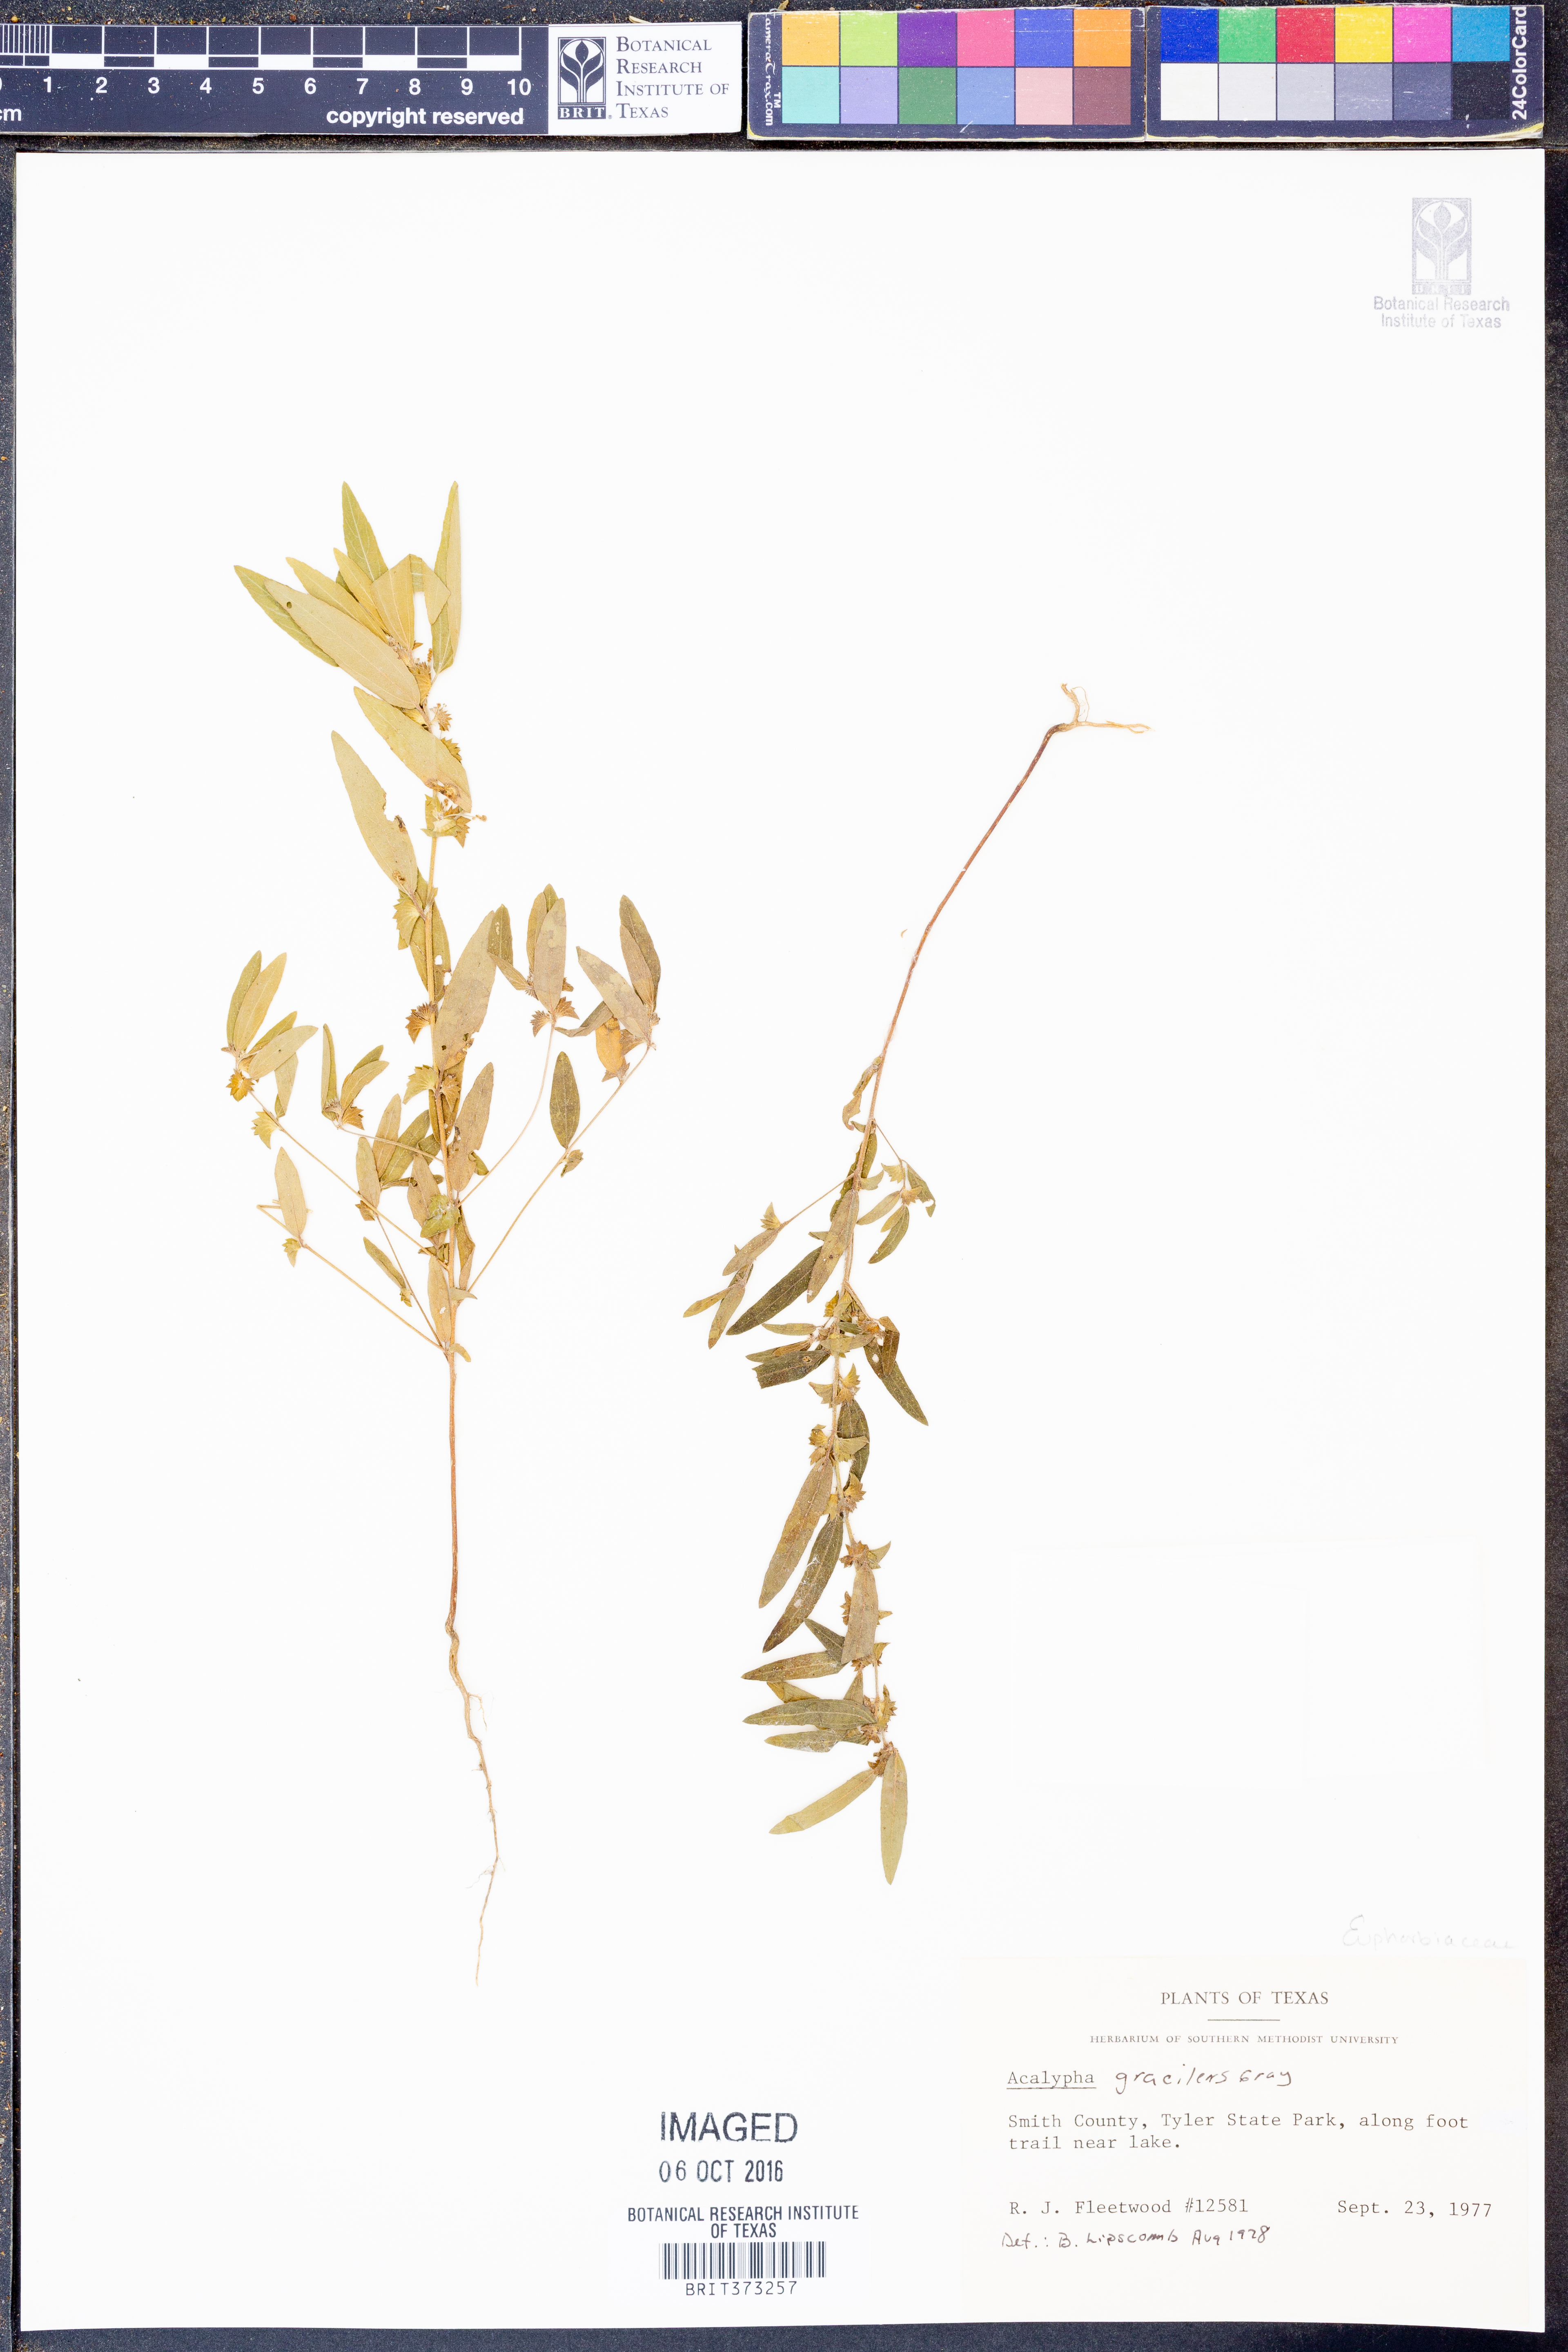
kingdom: Plantae
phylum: Tracheophyta
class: Magnoliopsida
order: Malpighiales
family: Euphorbiaceae
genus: Acalypha
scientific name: Acalypha gracilens
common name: Slender three-seeded mercury
